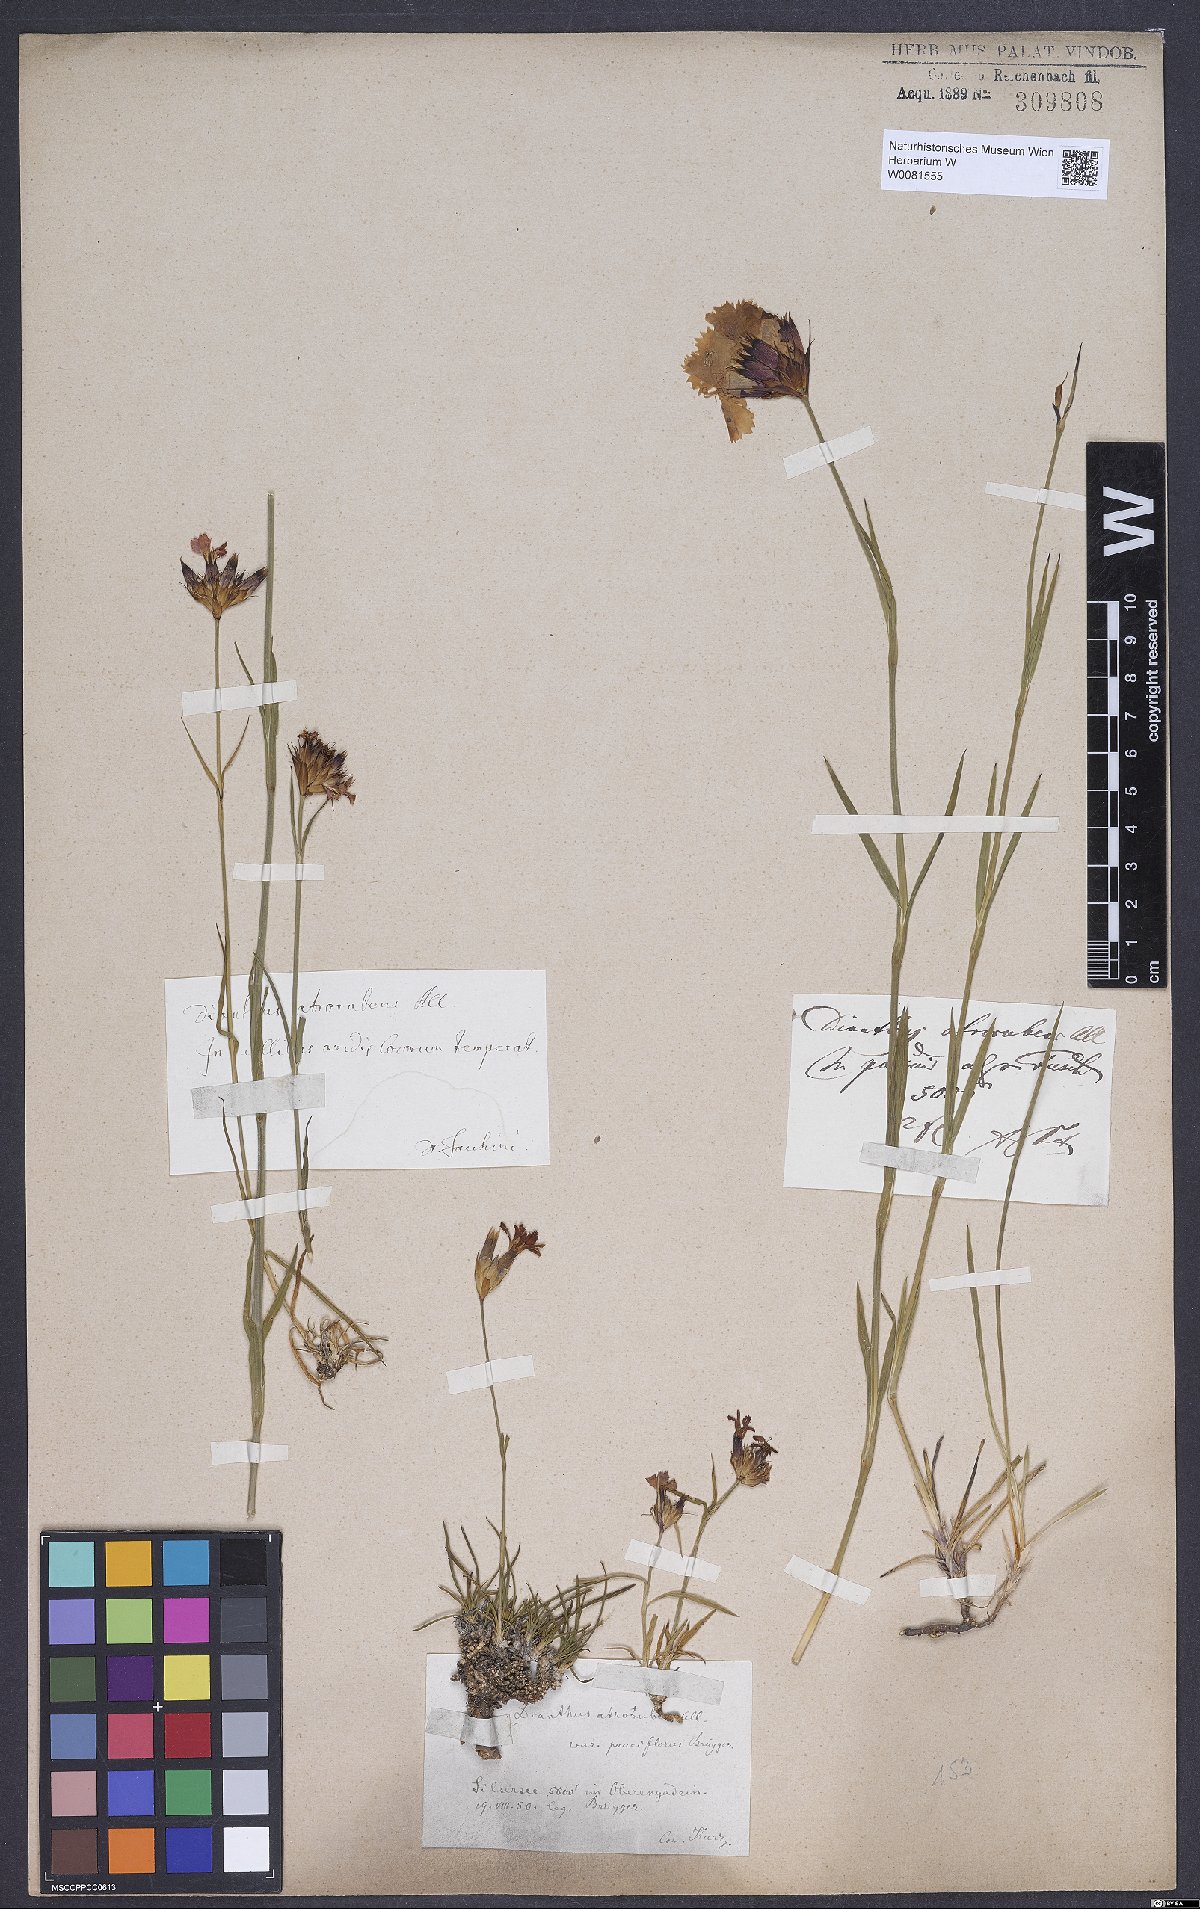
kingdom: Plantae
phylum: Tracheophyta
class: Magnoliopsida
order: Caryophyllales
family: Caryophyllaceae
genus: Dianthus
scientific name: Dianthus carthusianorum
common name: Carthusian pink
